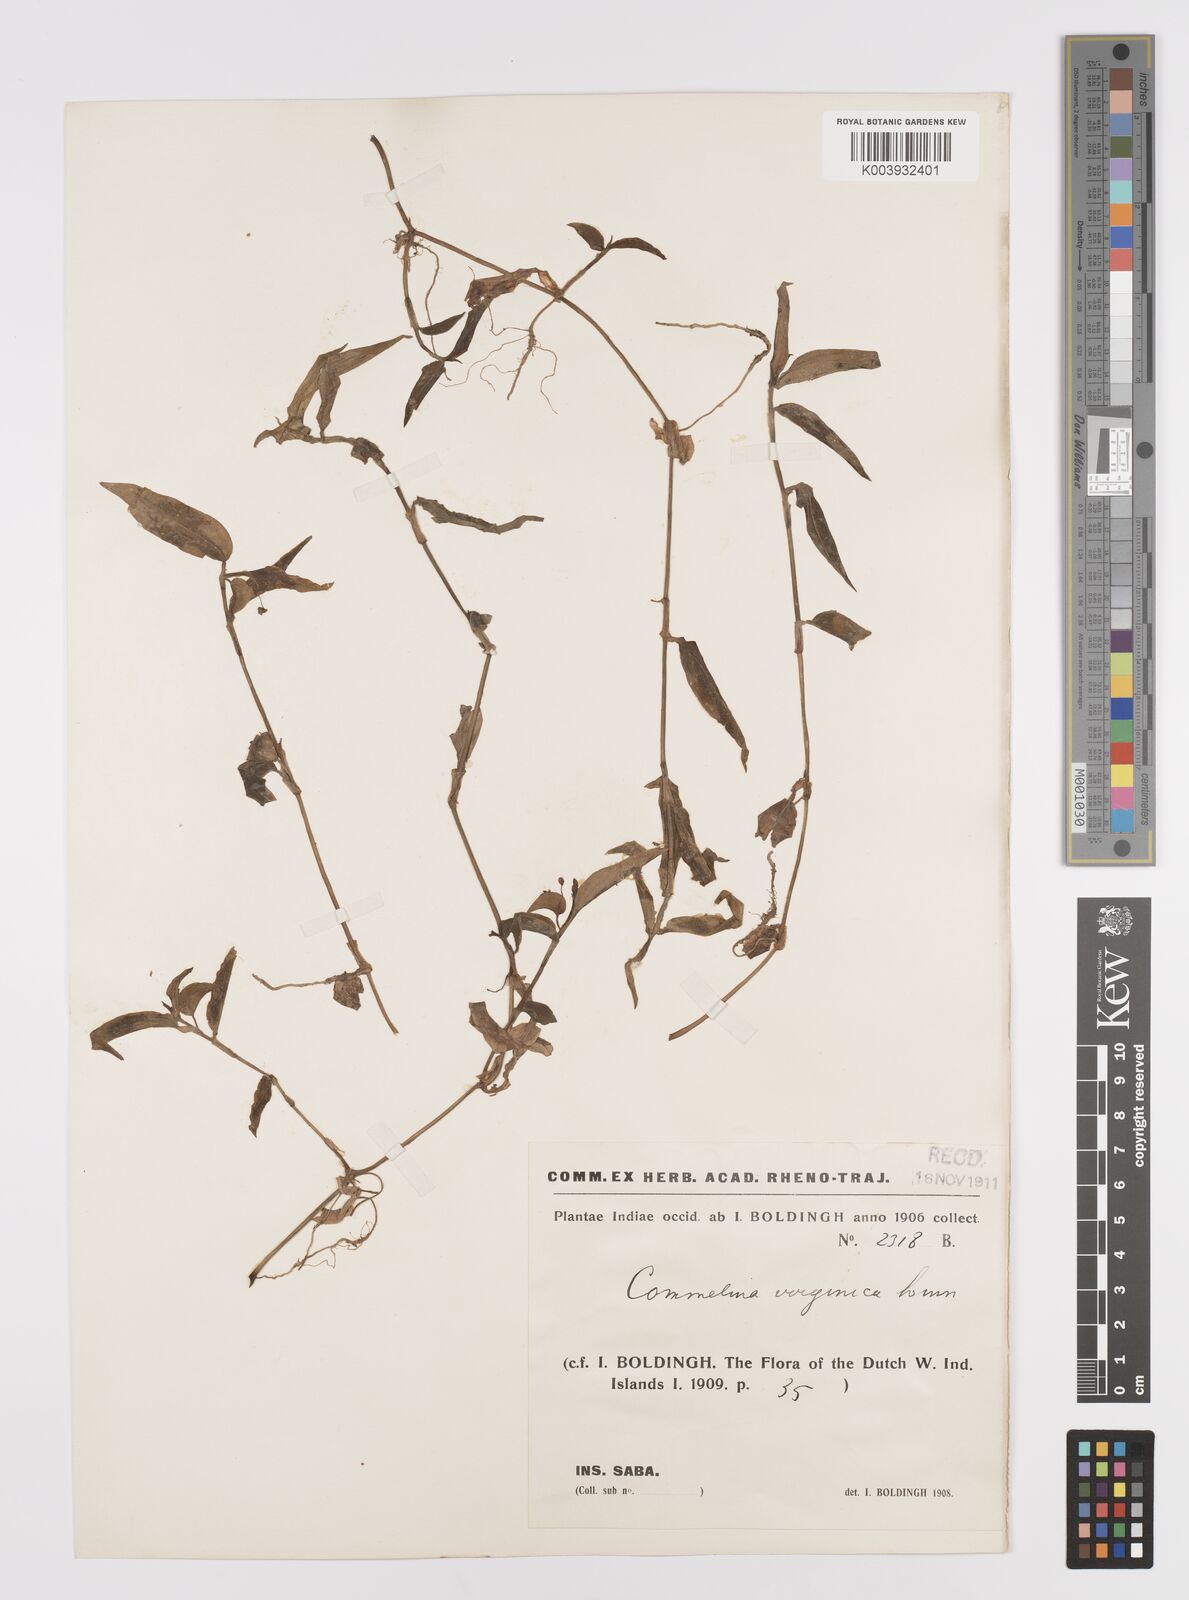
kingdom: Plantae
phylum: Tracheophyta
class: Liliopsida
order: Commelinales
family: Commelinaceae
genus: Commelina
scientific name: Commelina virginica
